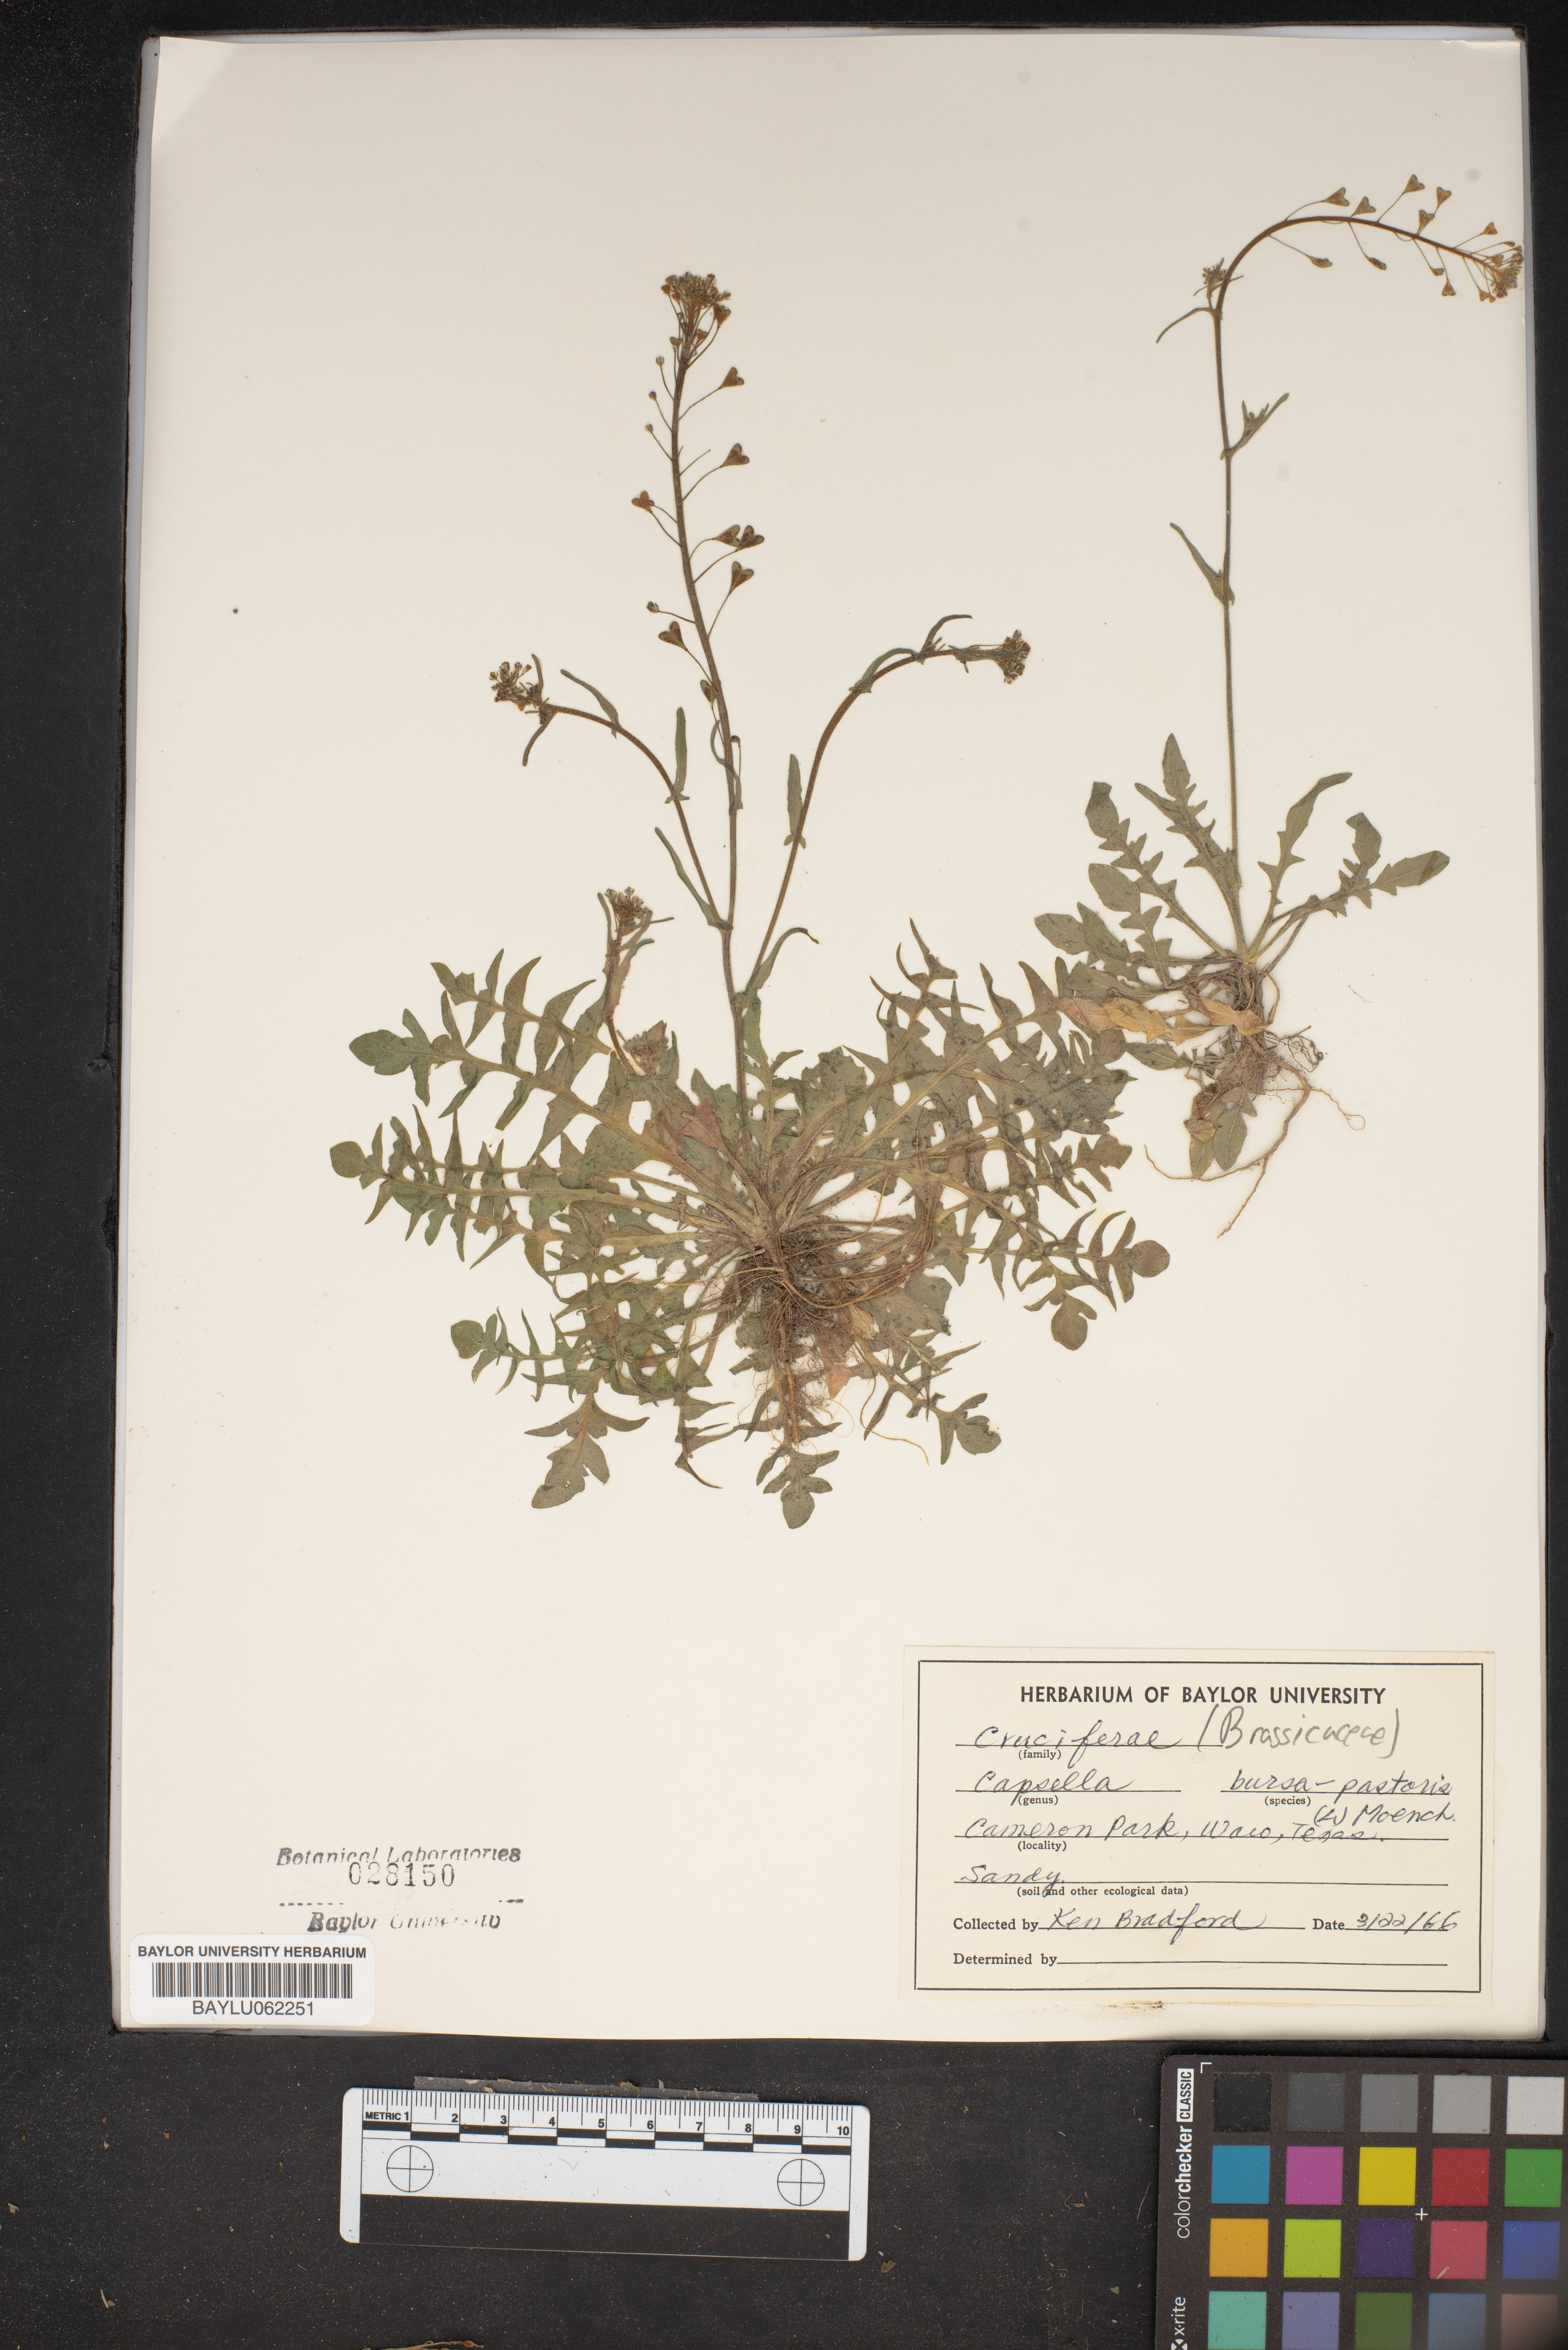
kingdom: Plantae
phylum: Tracheophyta
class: Magnoliopsida
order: Brassicales
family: Brassicaceae
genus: Capsella
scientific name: Capsella bursa-pastoris
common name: Shepherd's purse
